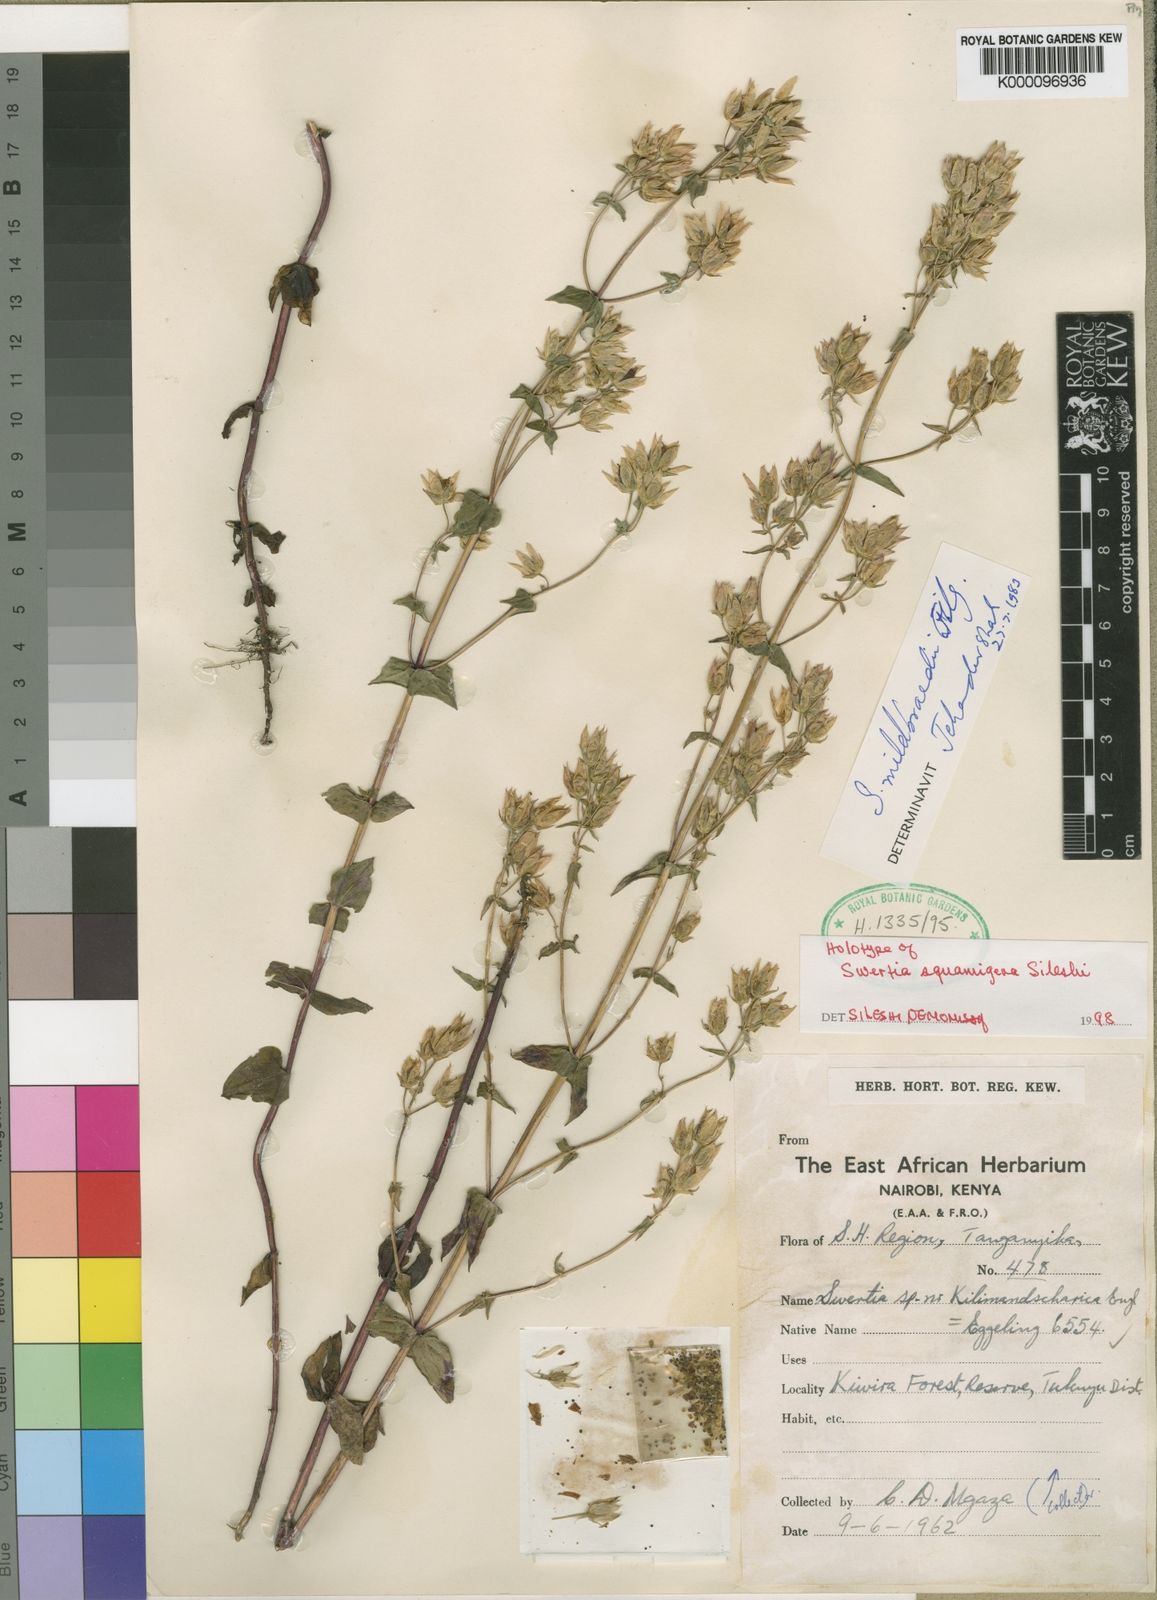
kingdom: Plantae
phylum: Tracheophyta
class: Magnoliopsida
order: Gentianales
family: Gentianaceae
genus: Swertia
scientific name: Swertia squamigera
